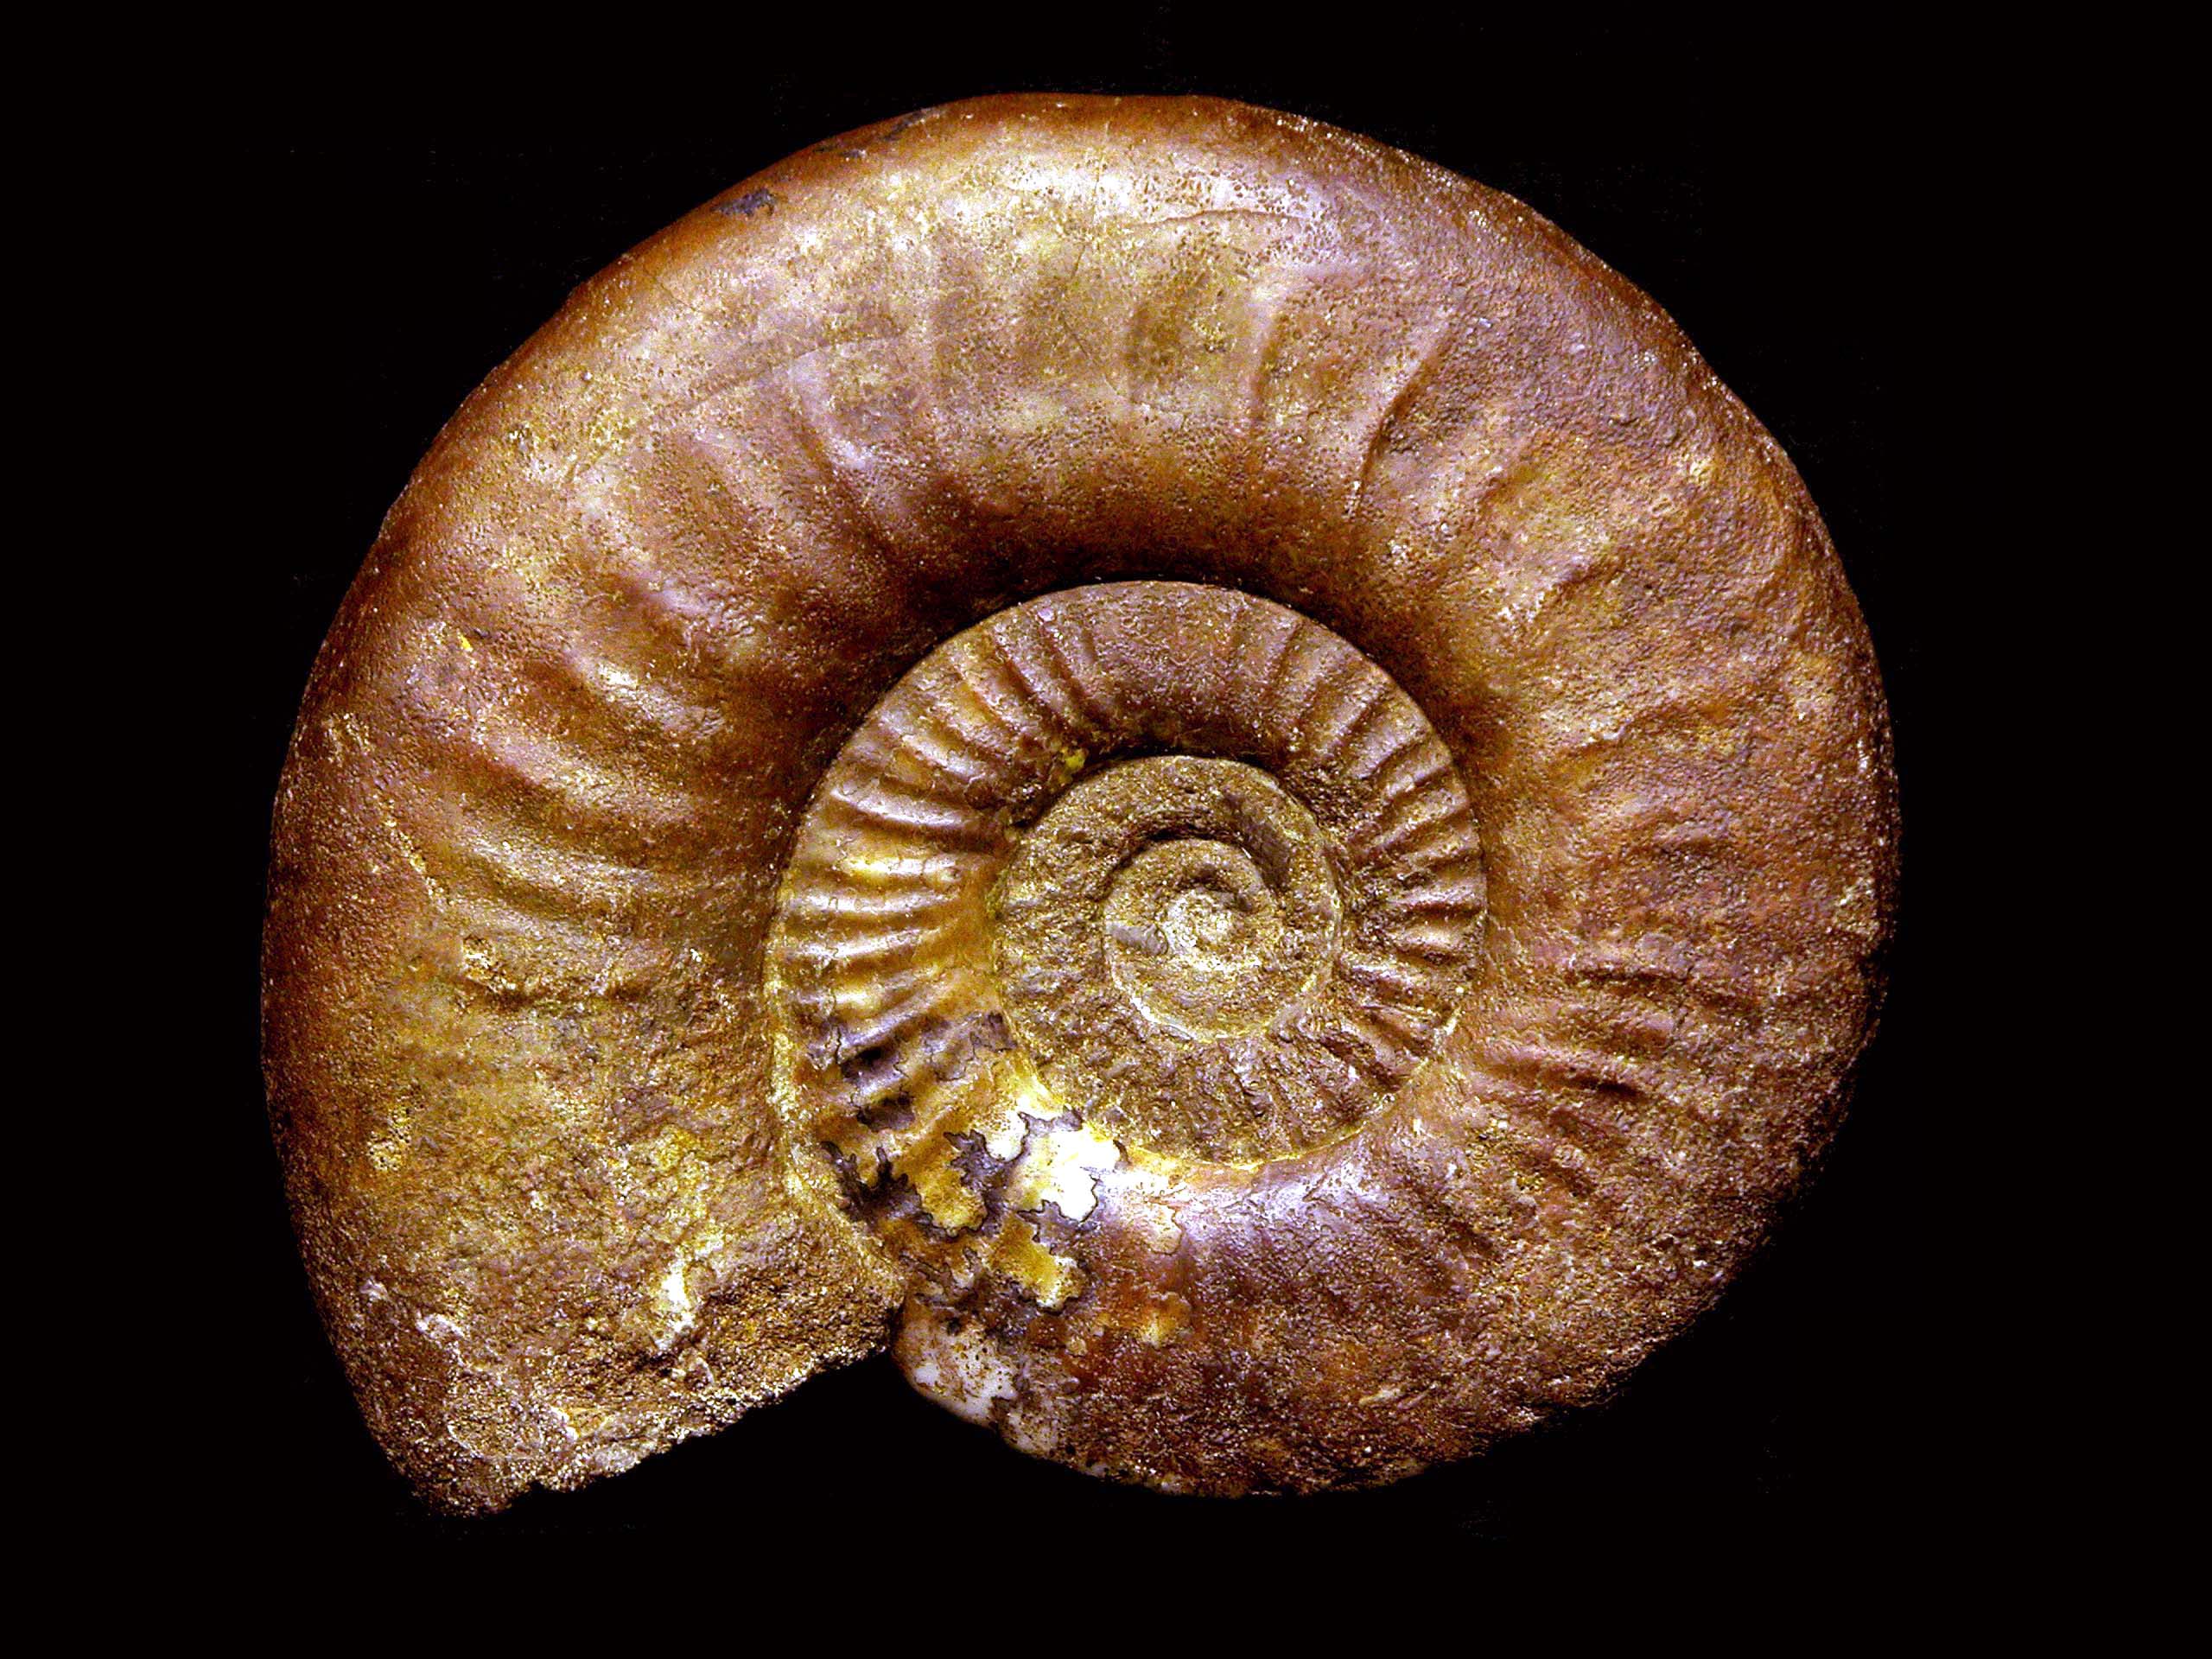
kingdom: Animalia
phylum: Mollusca
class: Cephalopoda
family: Hildoceratidae
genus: Dumortieria
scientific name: Dumortieria kochi
